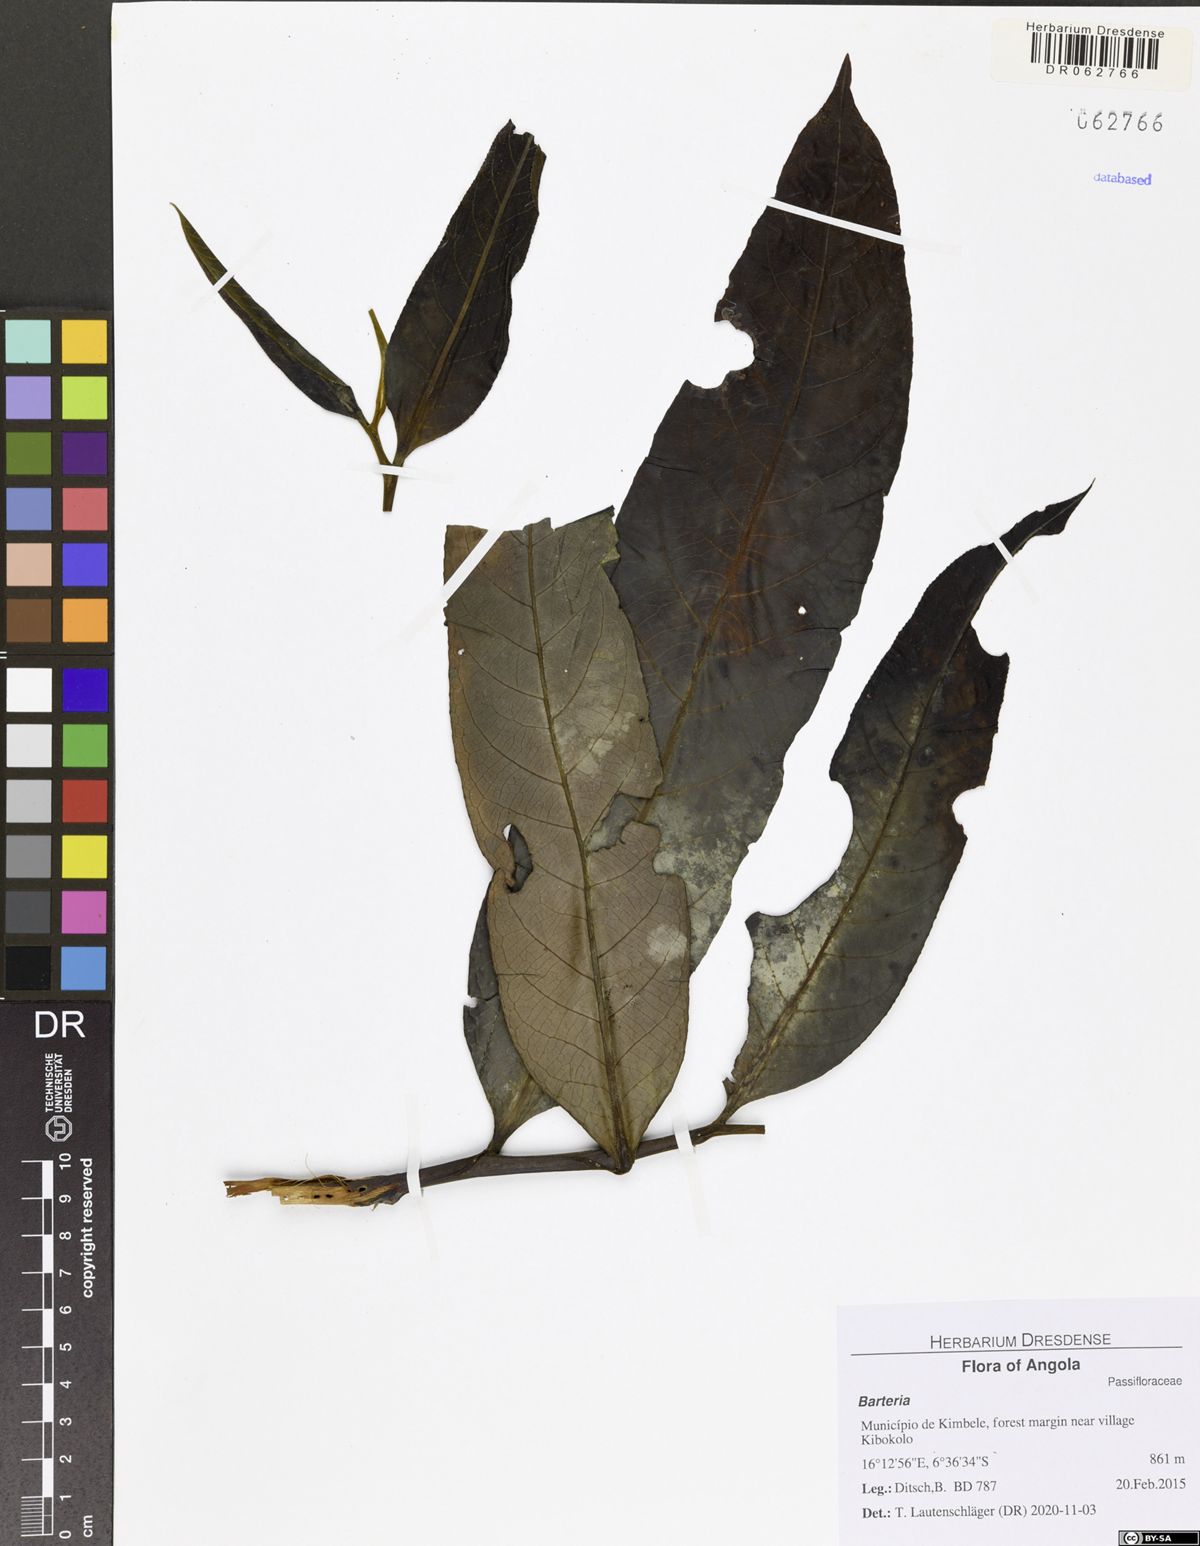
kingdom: Plantae
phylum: Tracheophyta
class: Magnoliopsida
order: Malpighiales
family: Passifloraceae
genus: Barteria
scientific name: Barteria
